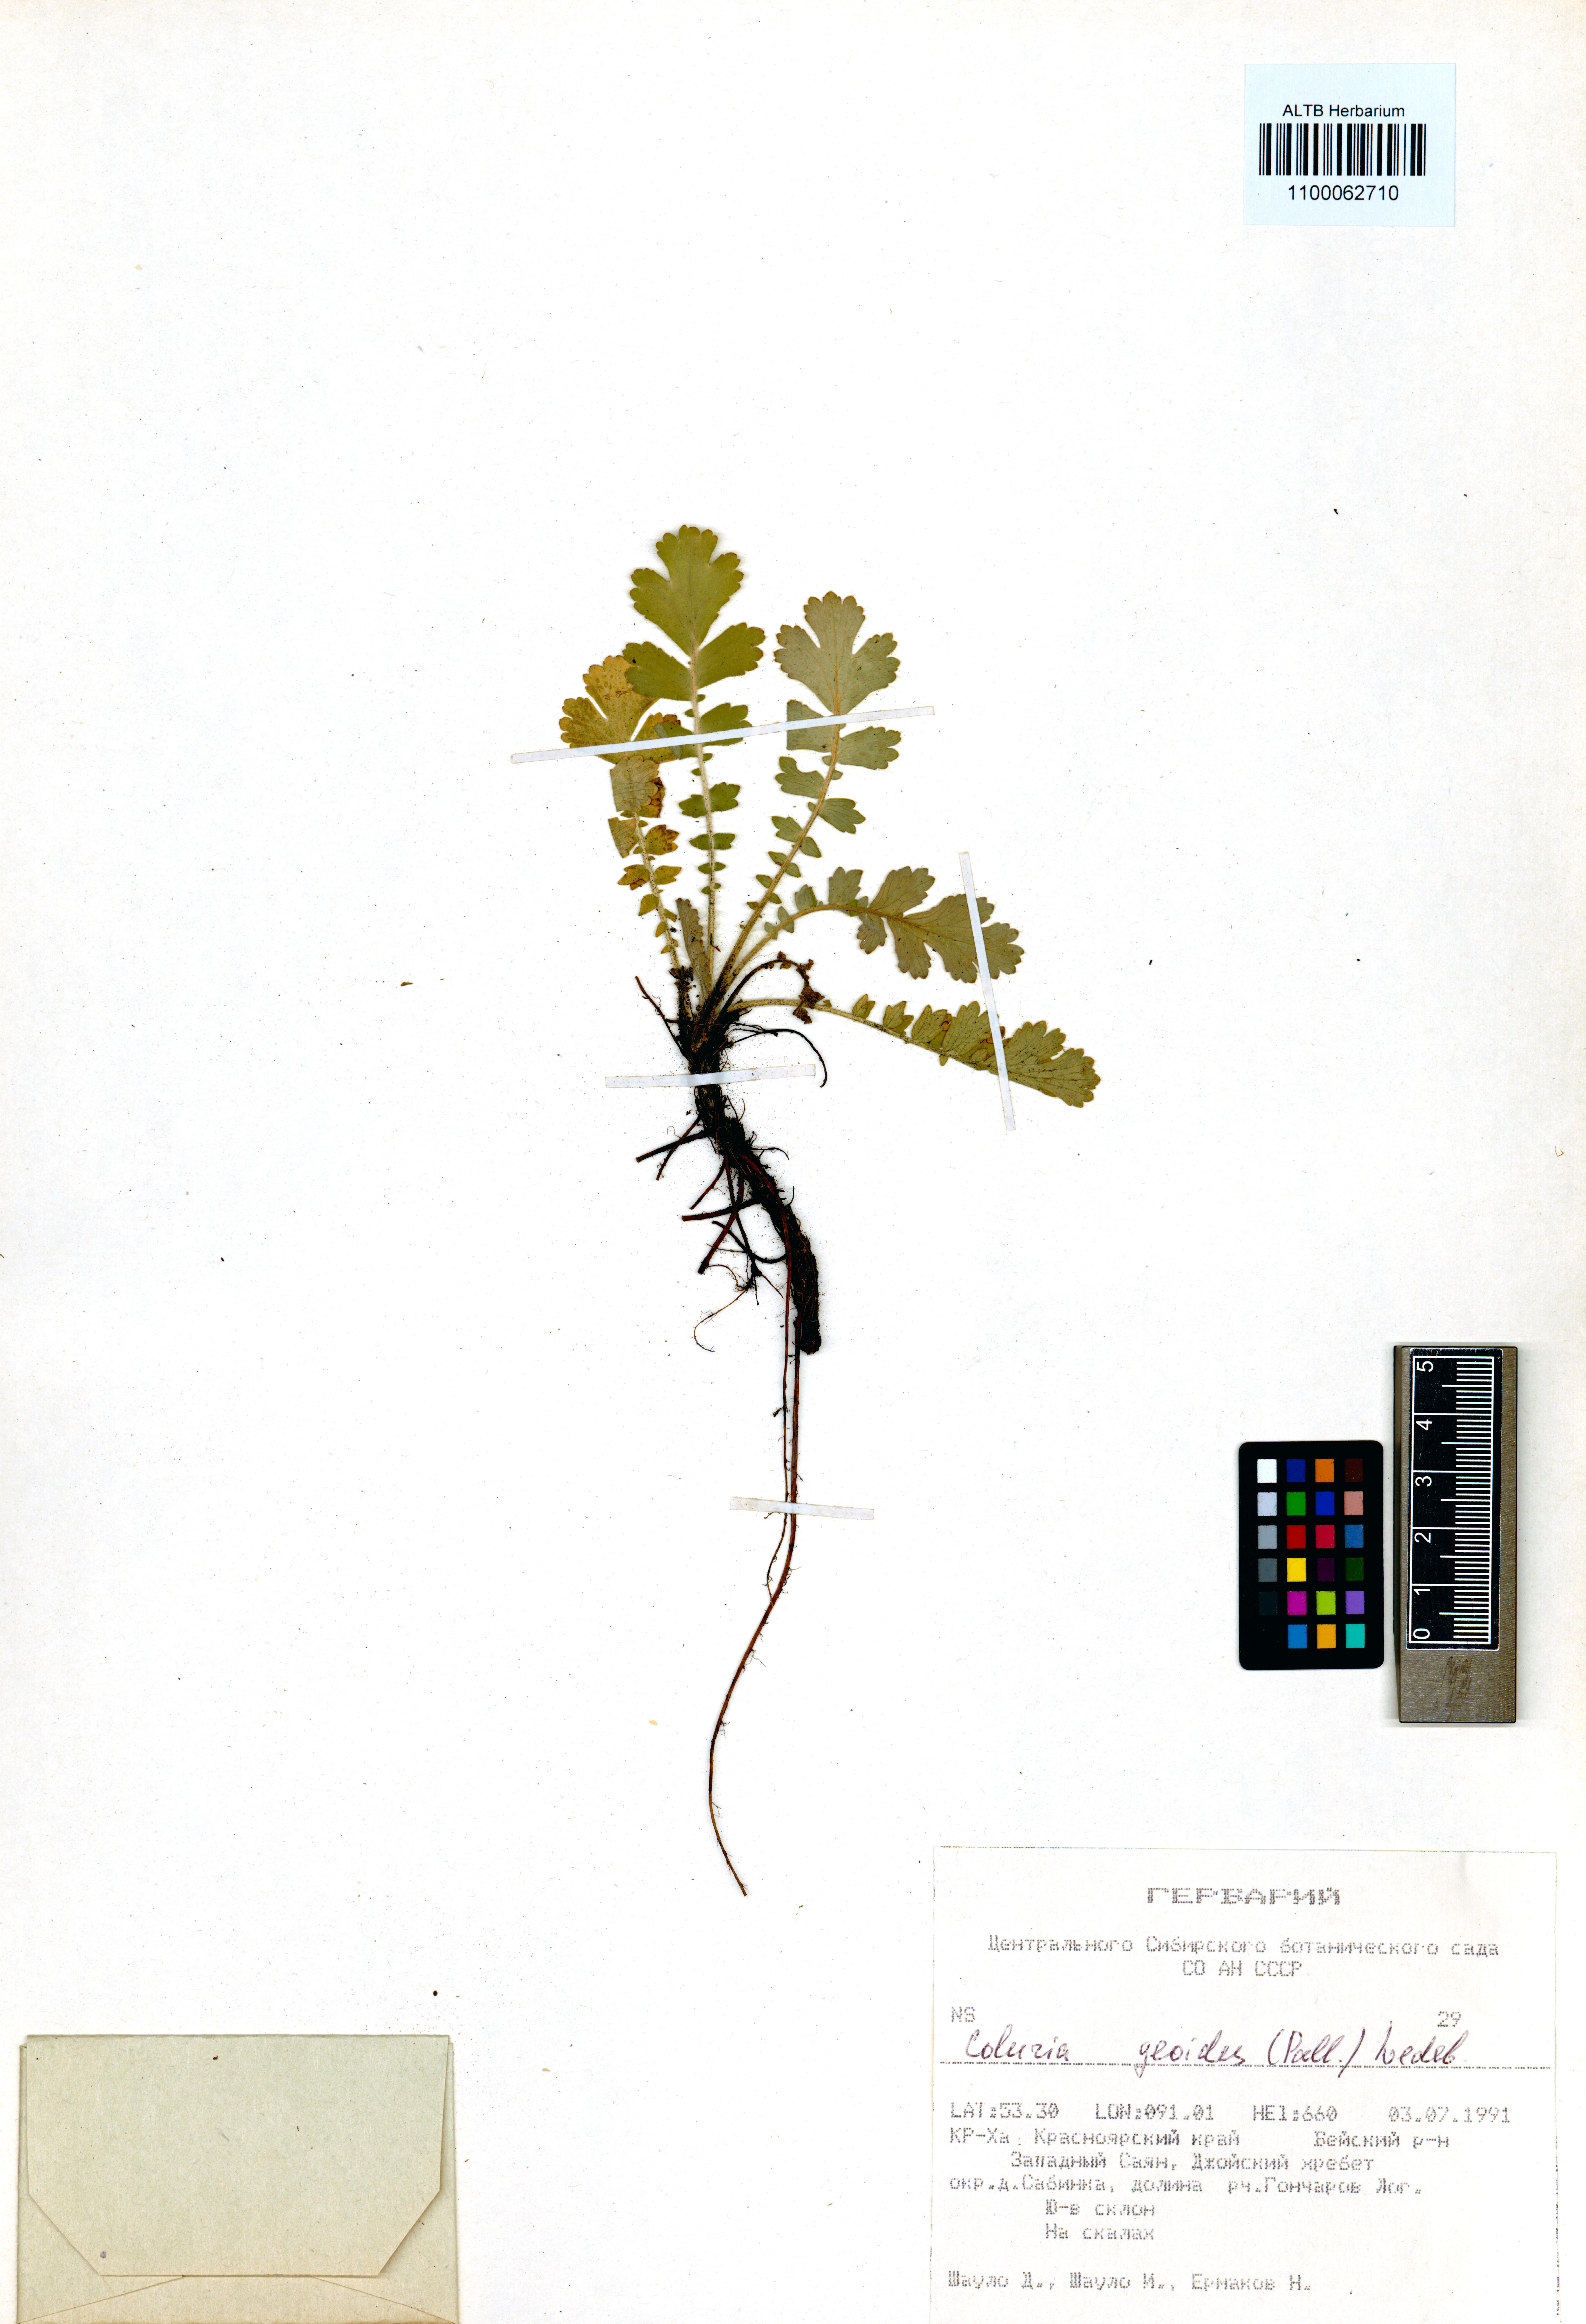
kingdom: Plantae
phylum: Tracheophyta
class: Magnoliopsida
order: Rosales
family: Rosaceae
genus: Geum
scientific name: Geum geoides
